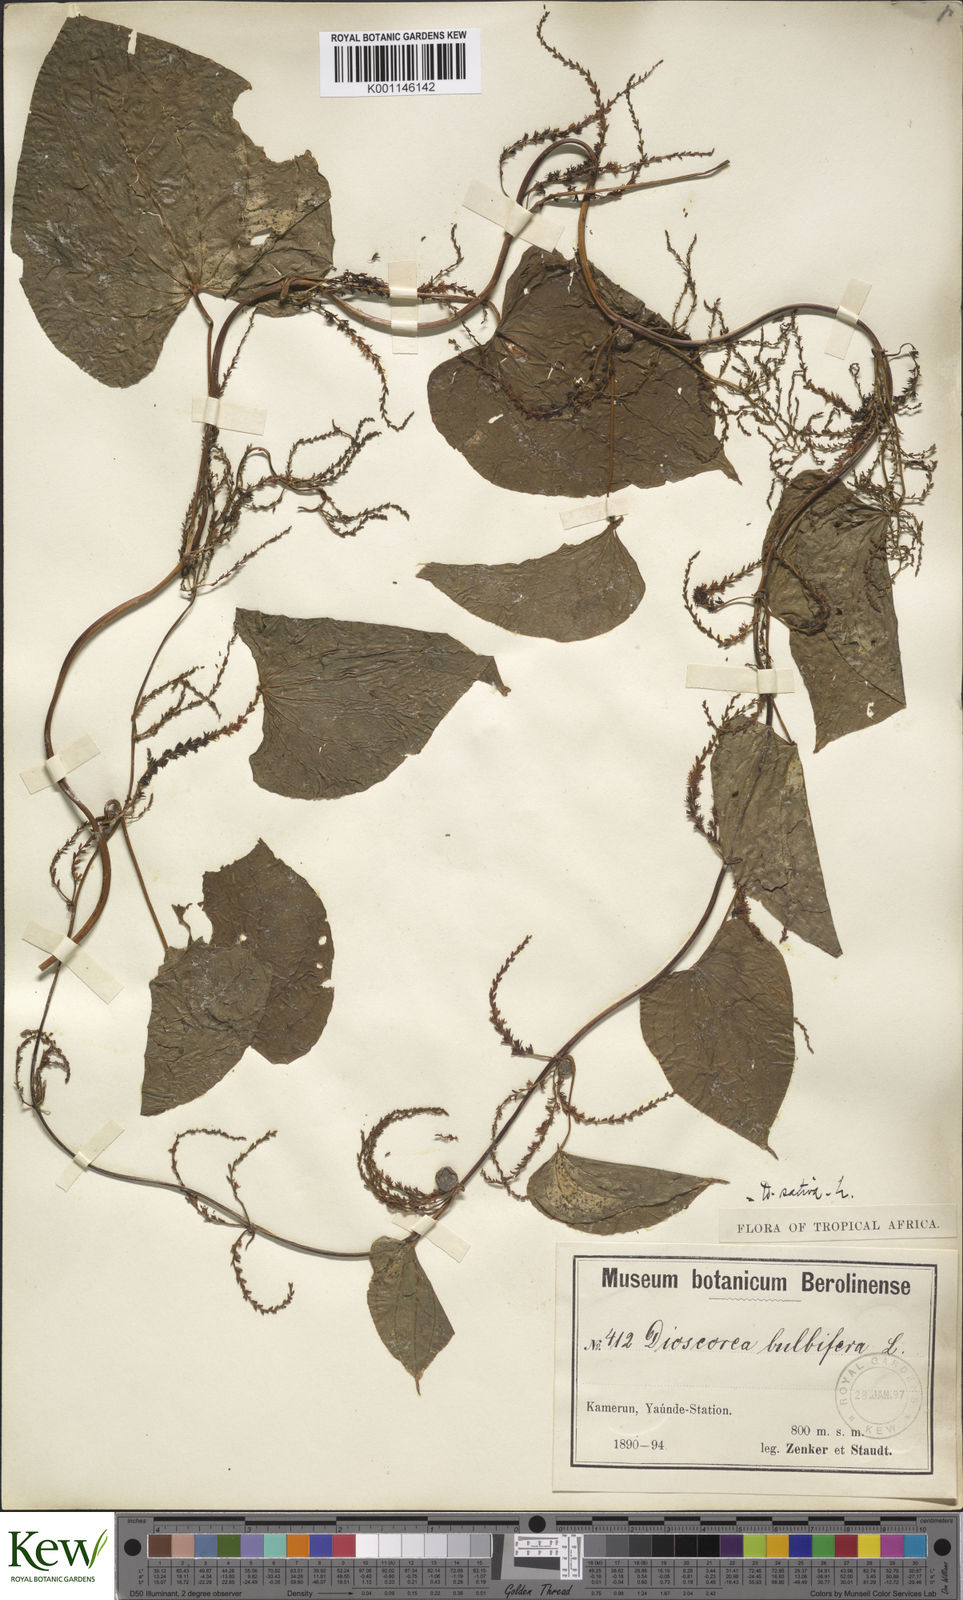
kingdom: Plantae
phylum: Tracheophyta
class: Liliopsida
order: Dioscoreales
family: Dioscoreaceae
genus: Dioscorea
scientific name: Dioscorea bulbifera
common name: Air yam
